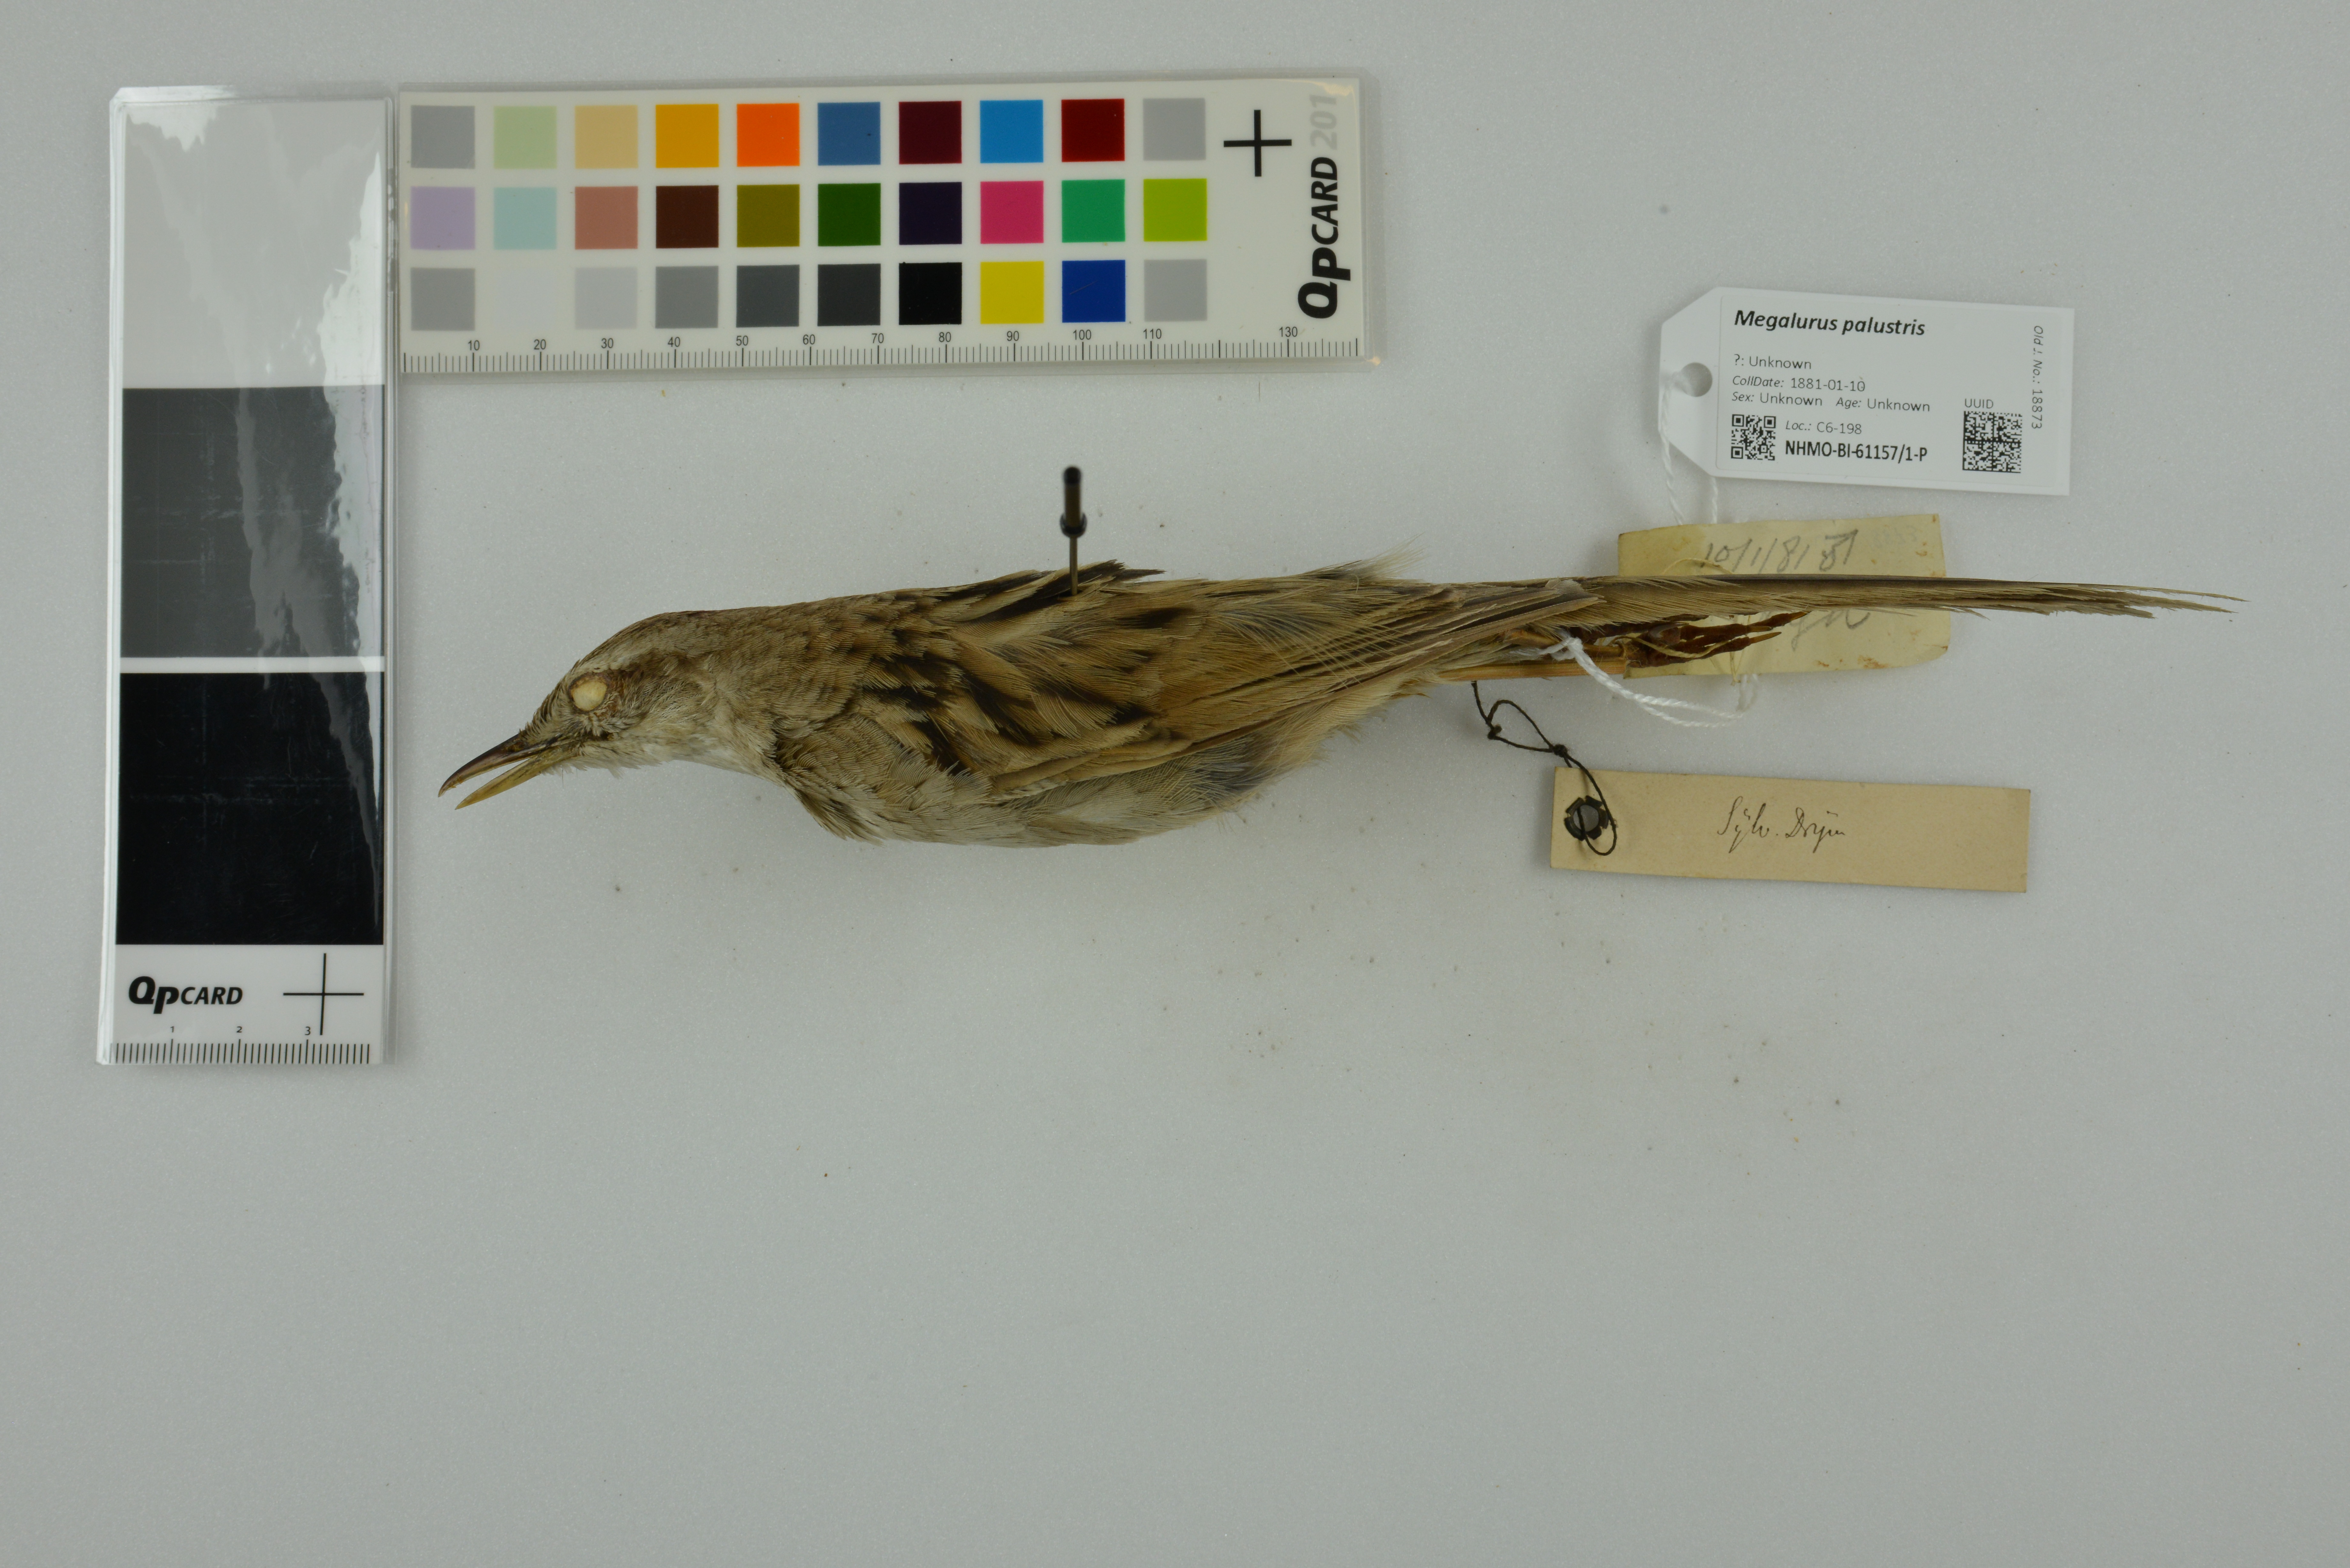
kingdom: Animalia
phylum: Chordata
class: Aves
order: Passeriformes
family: Locustellidae
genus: Megalurus
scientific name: Megalurus palustris
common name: Striated grassbird
